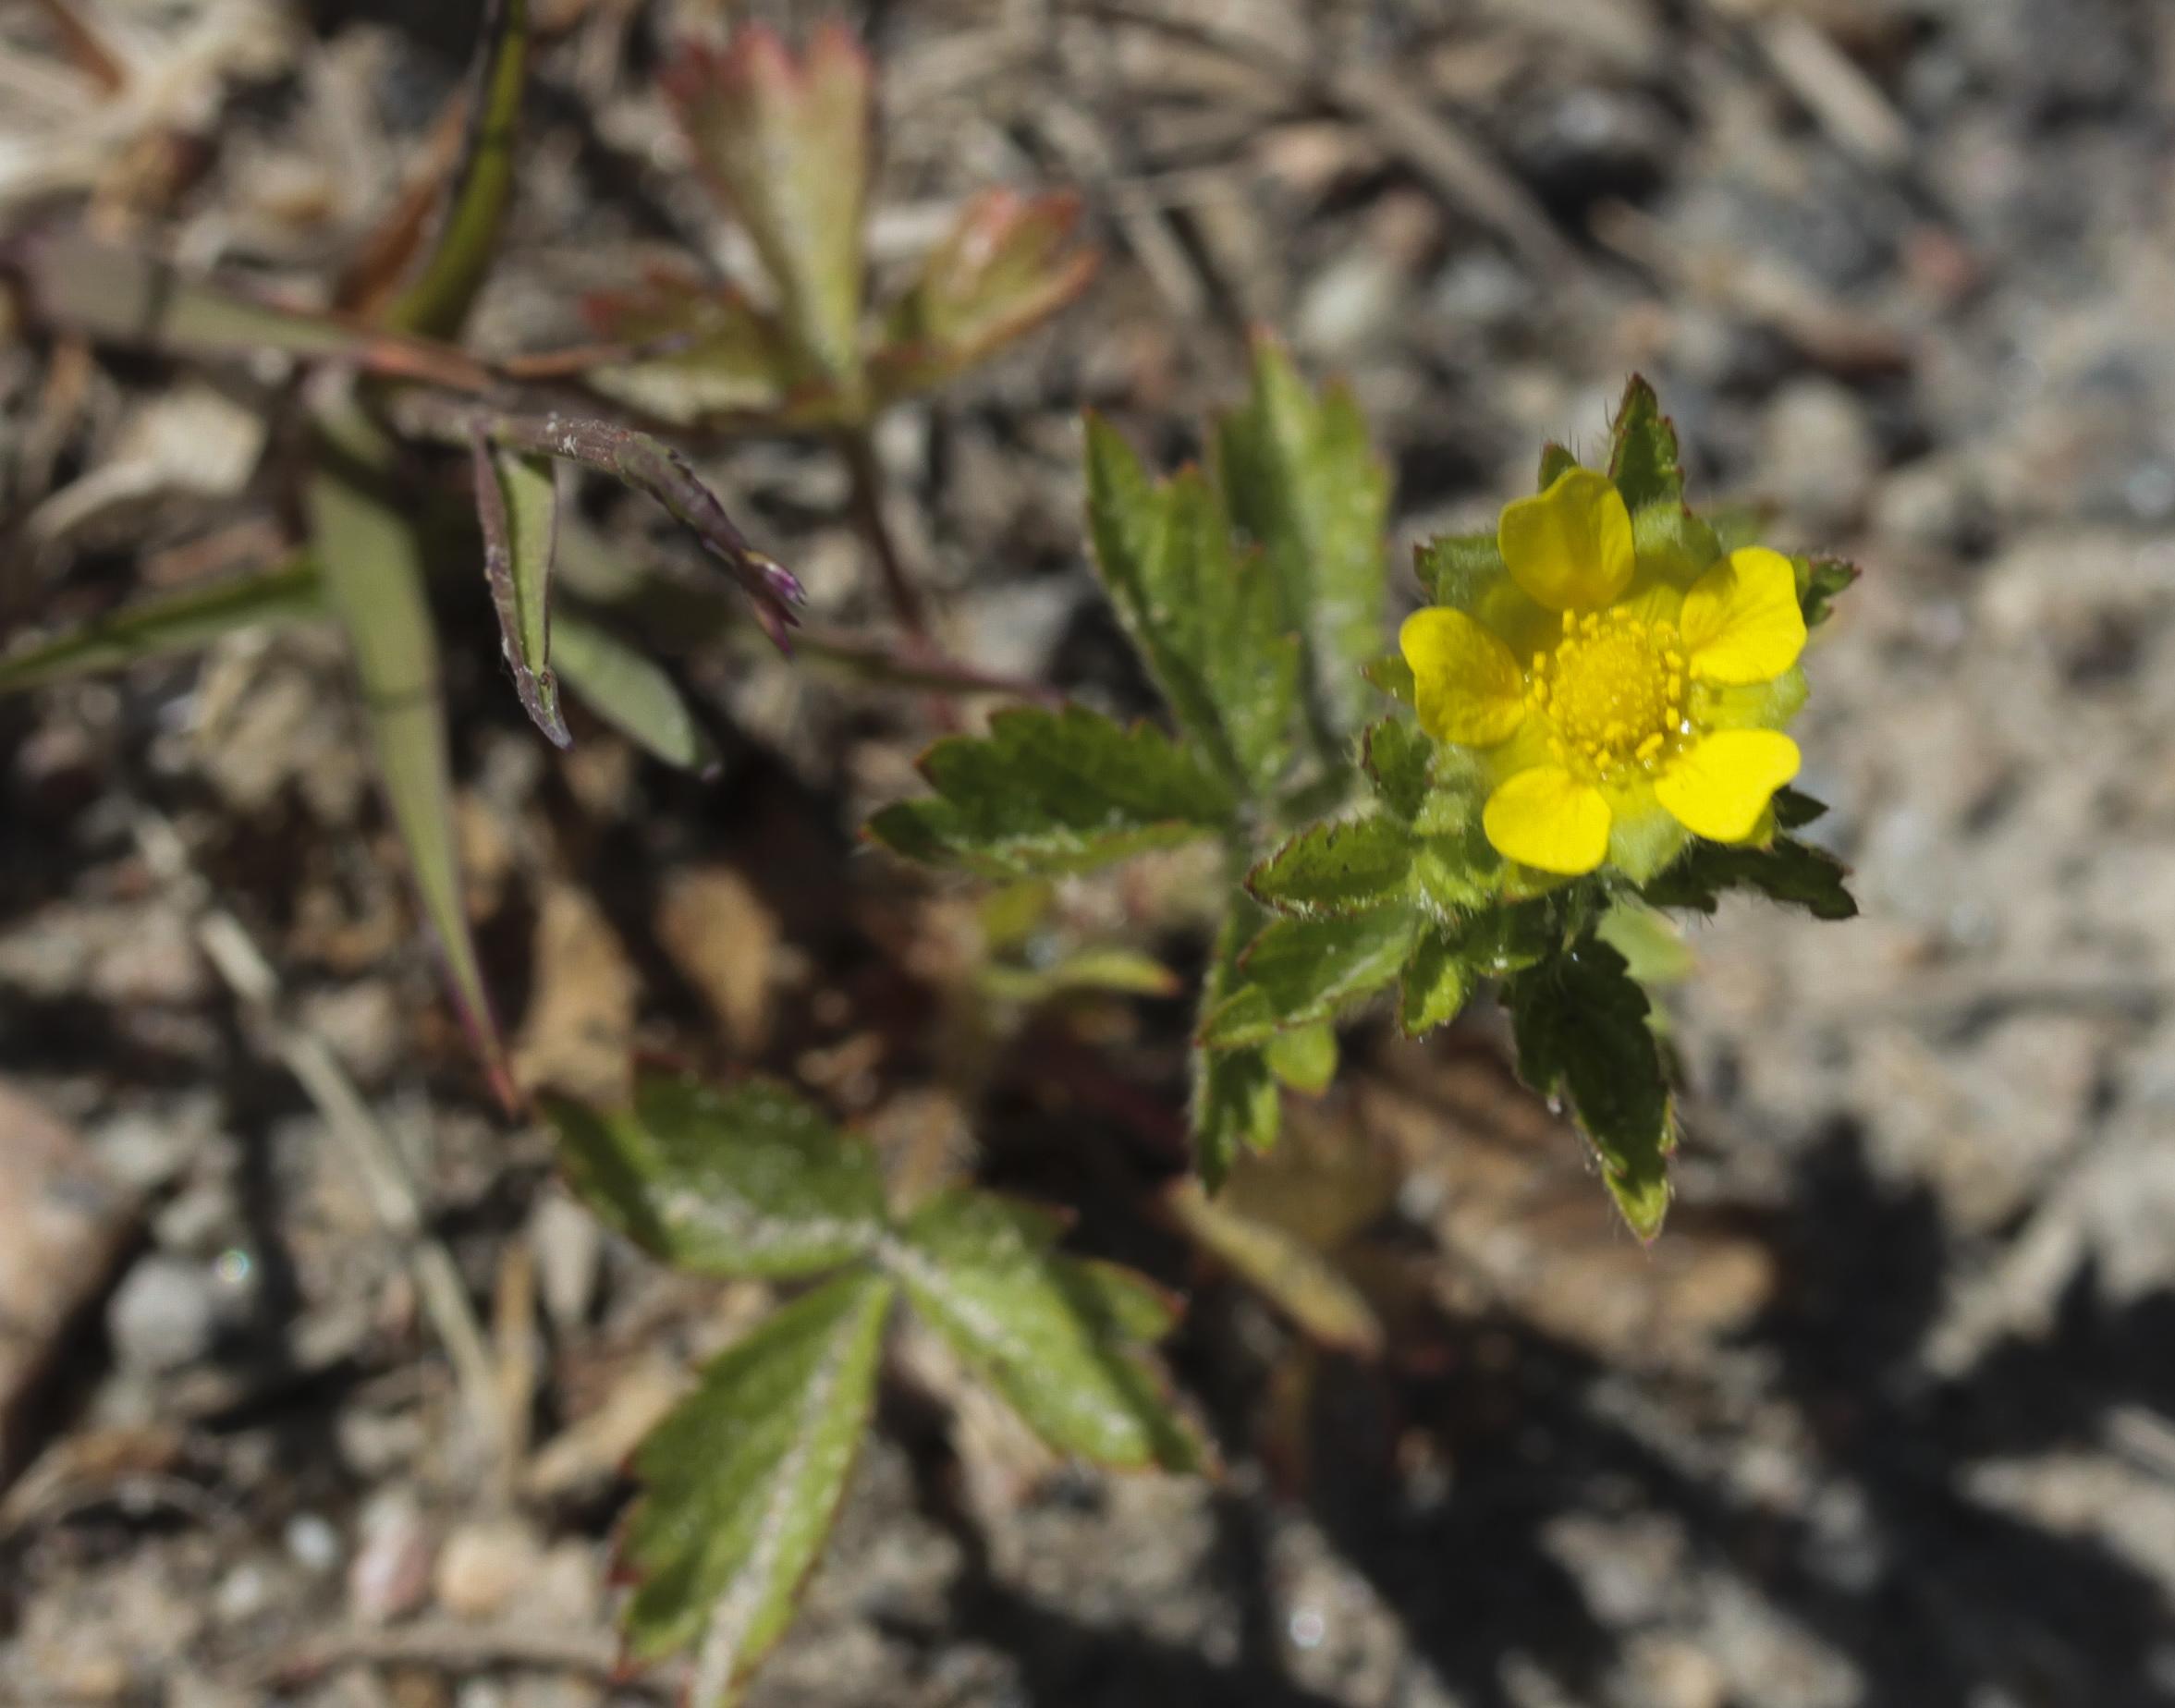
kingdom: Plantae
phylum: Tracheophyta
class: Magnoliopsida
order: Rosales
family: Rosaceae
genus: Potentilla
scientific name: Potentilla norvegica
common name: Ternate-leaved cinquefoil
